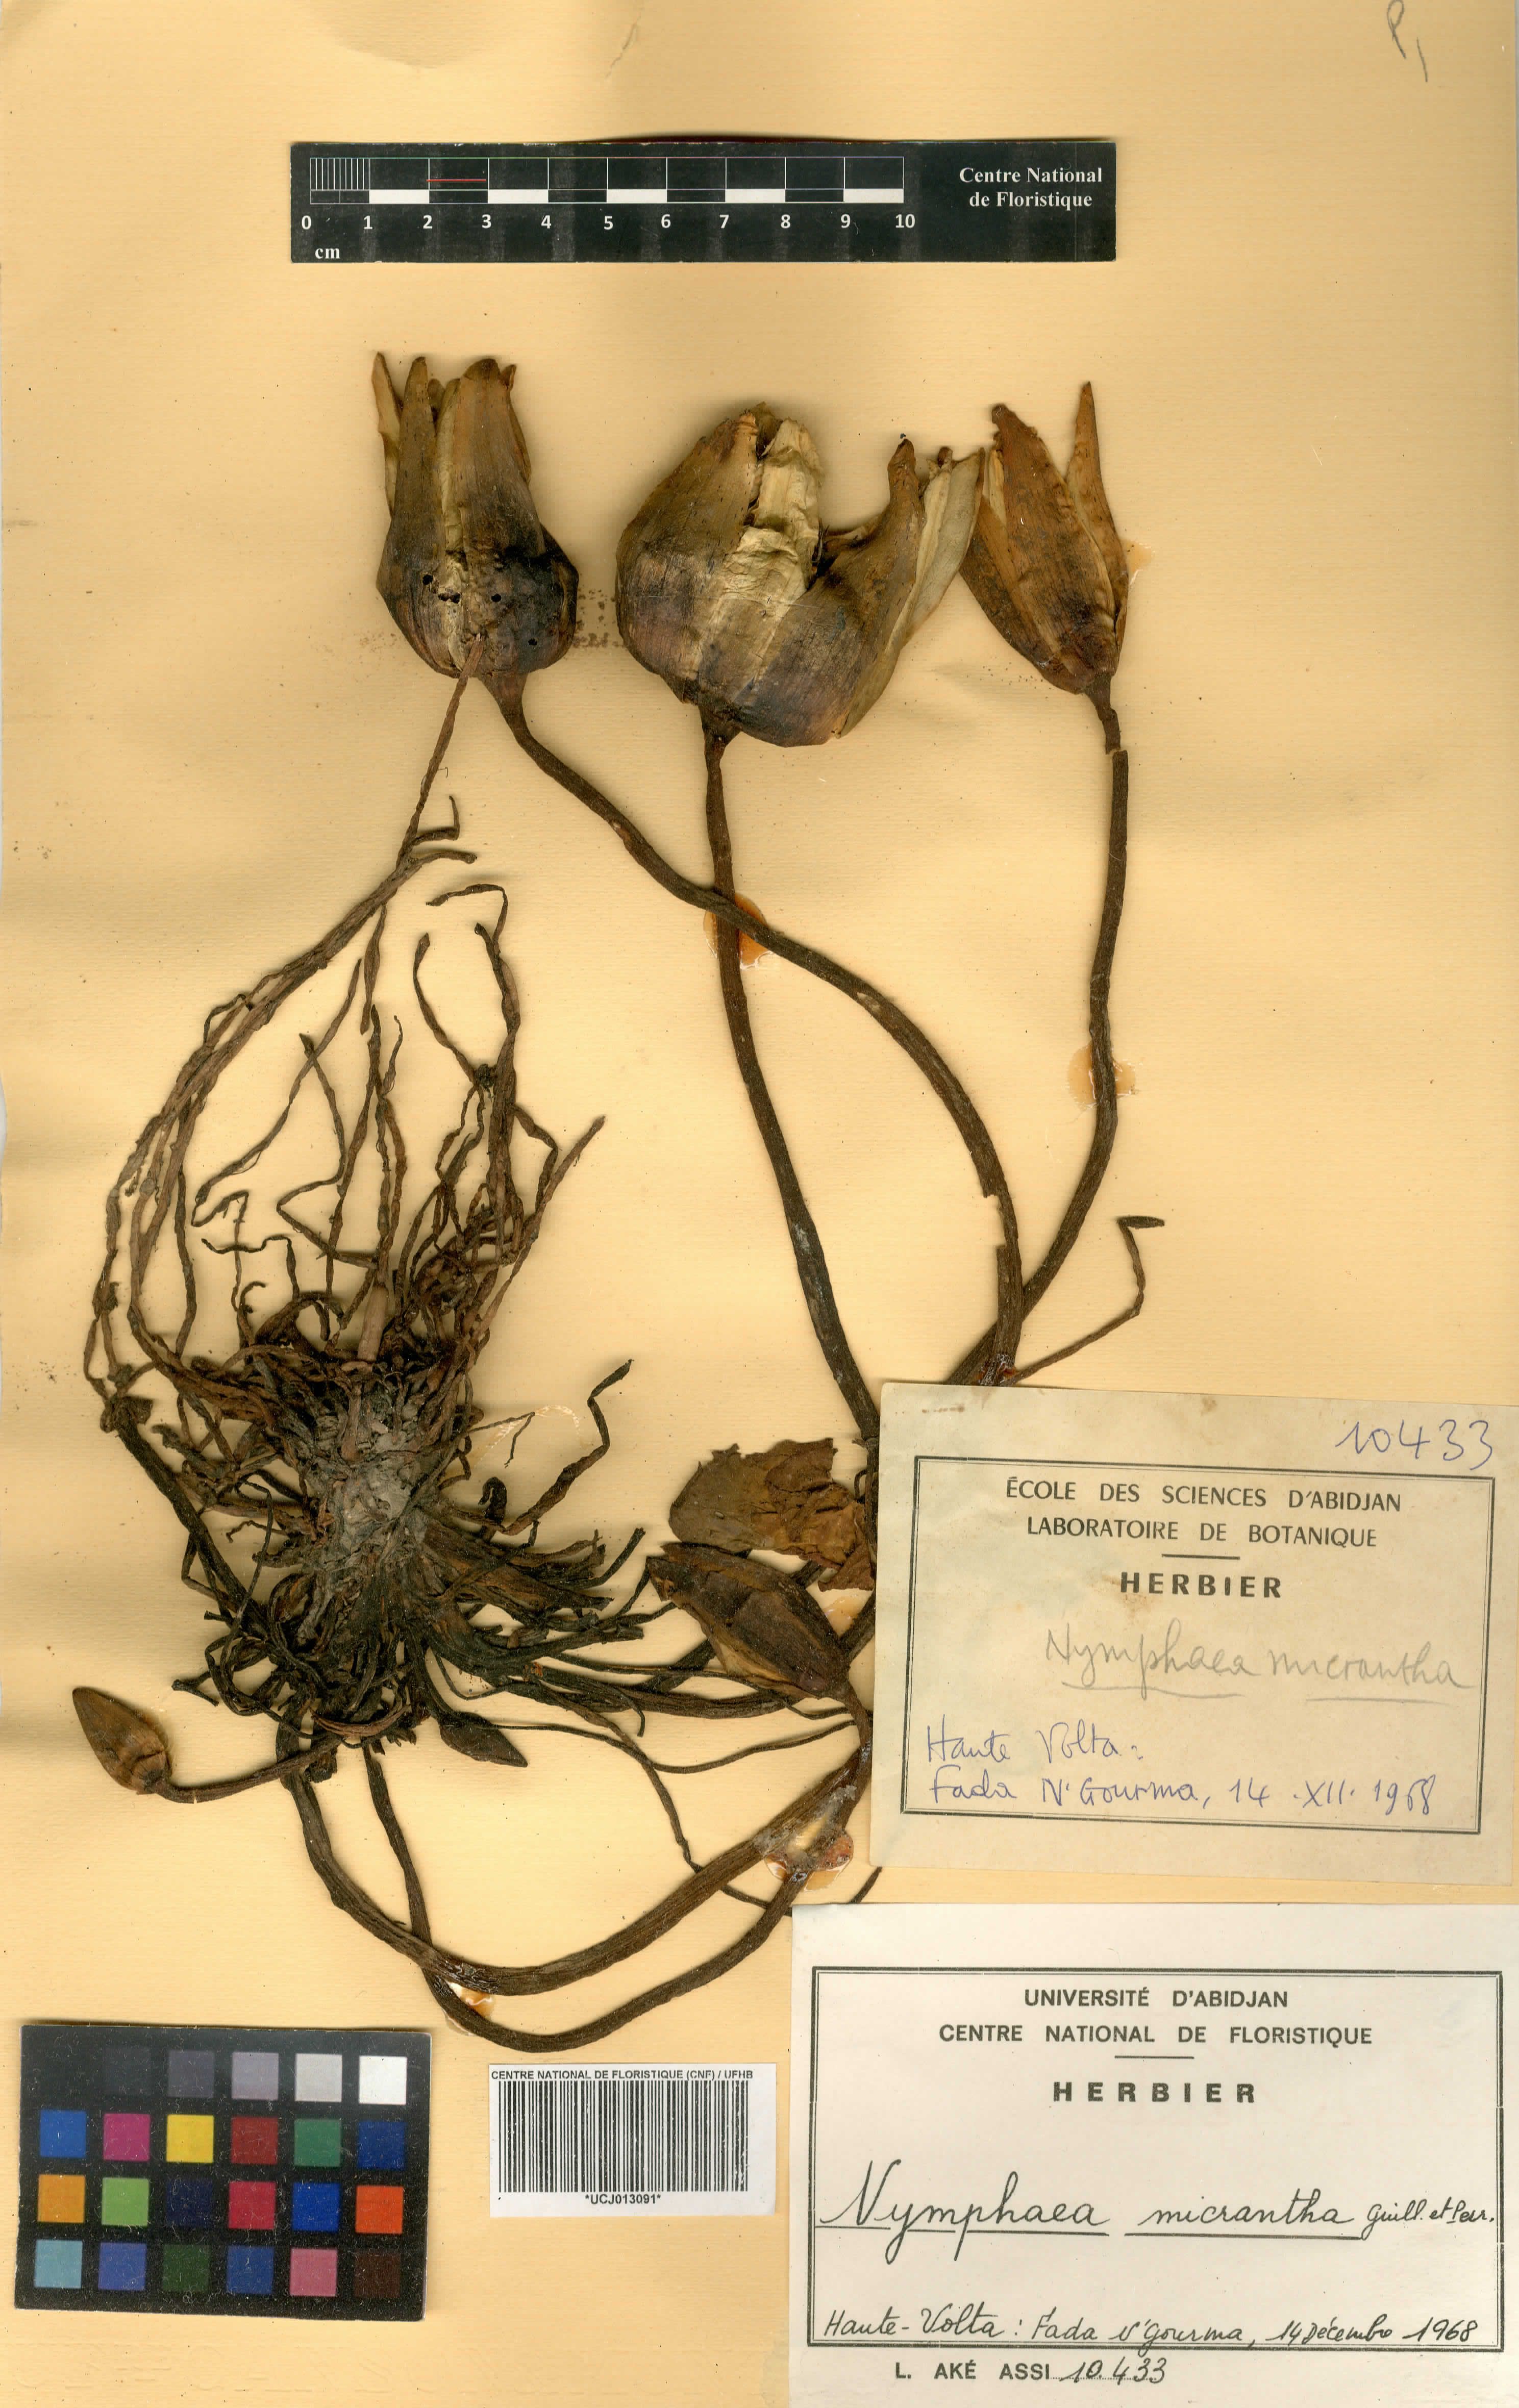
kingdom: Plantae
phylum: Tracheophyta
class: Magnoliopsida
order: Nymphaeales
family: Nymphaeaceae
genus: Nymphaea
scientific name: Nymphaea micrantha
